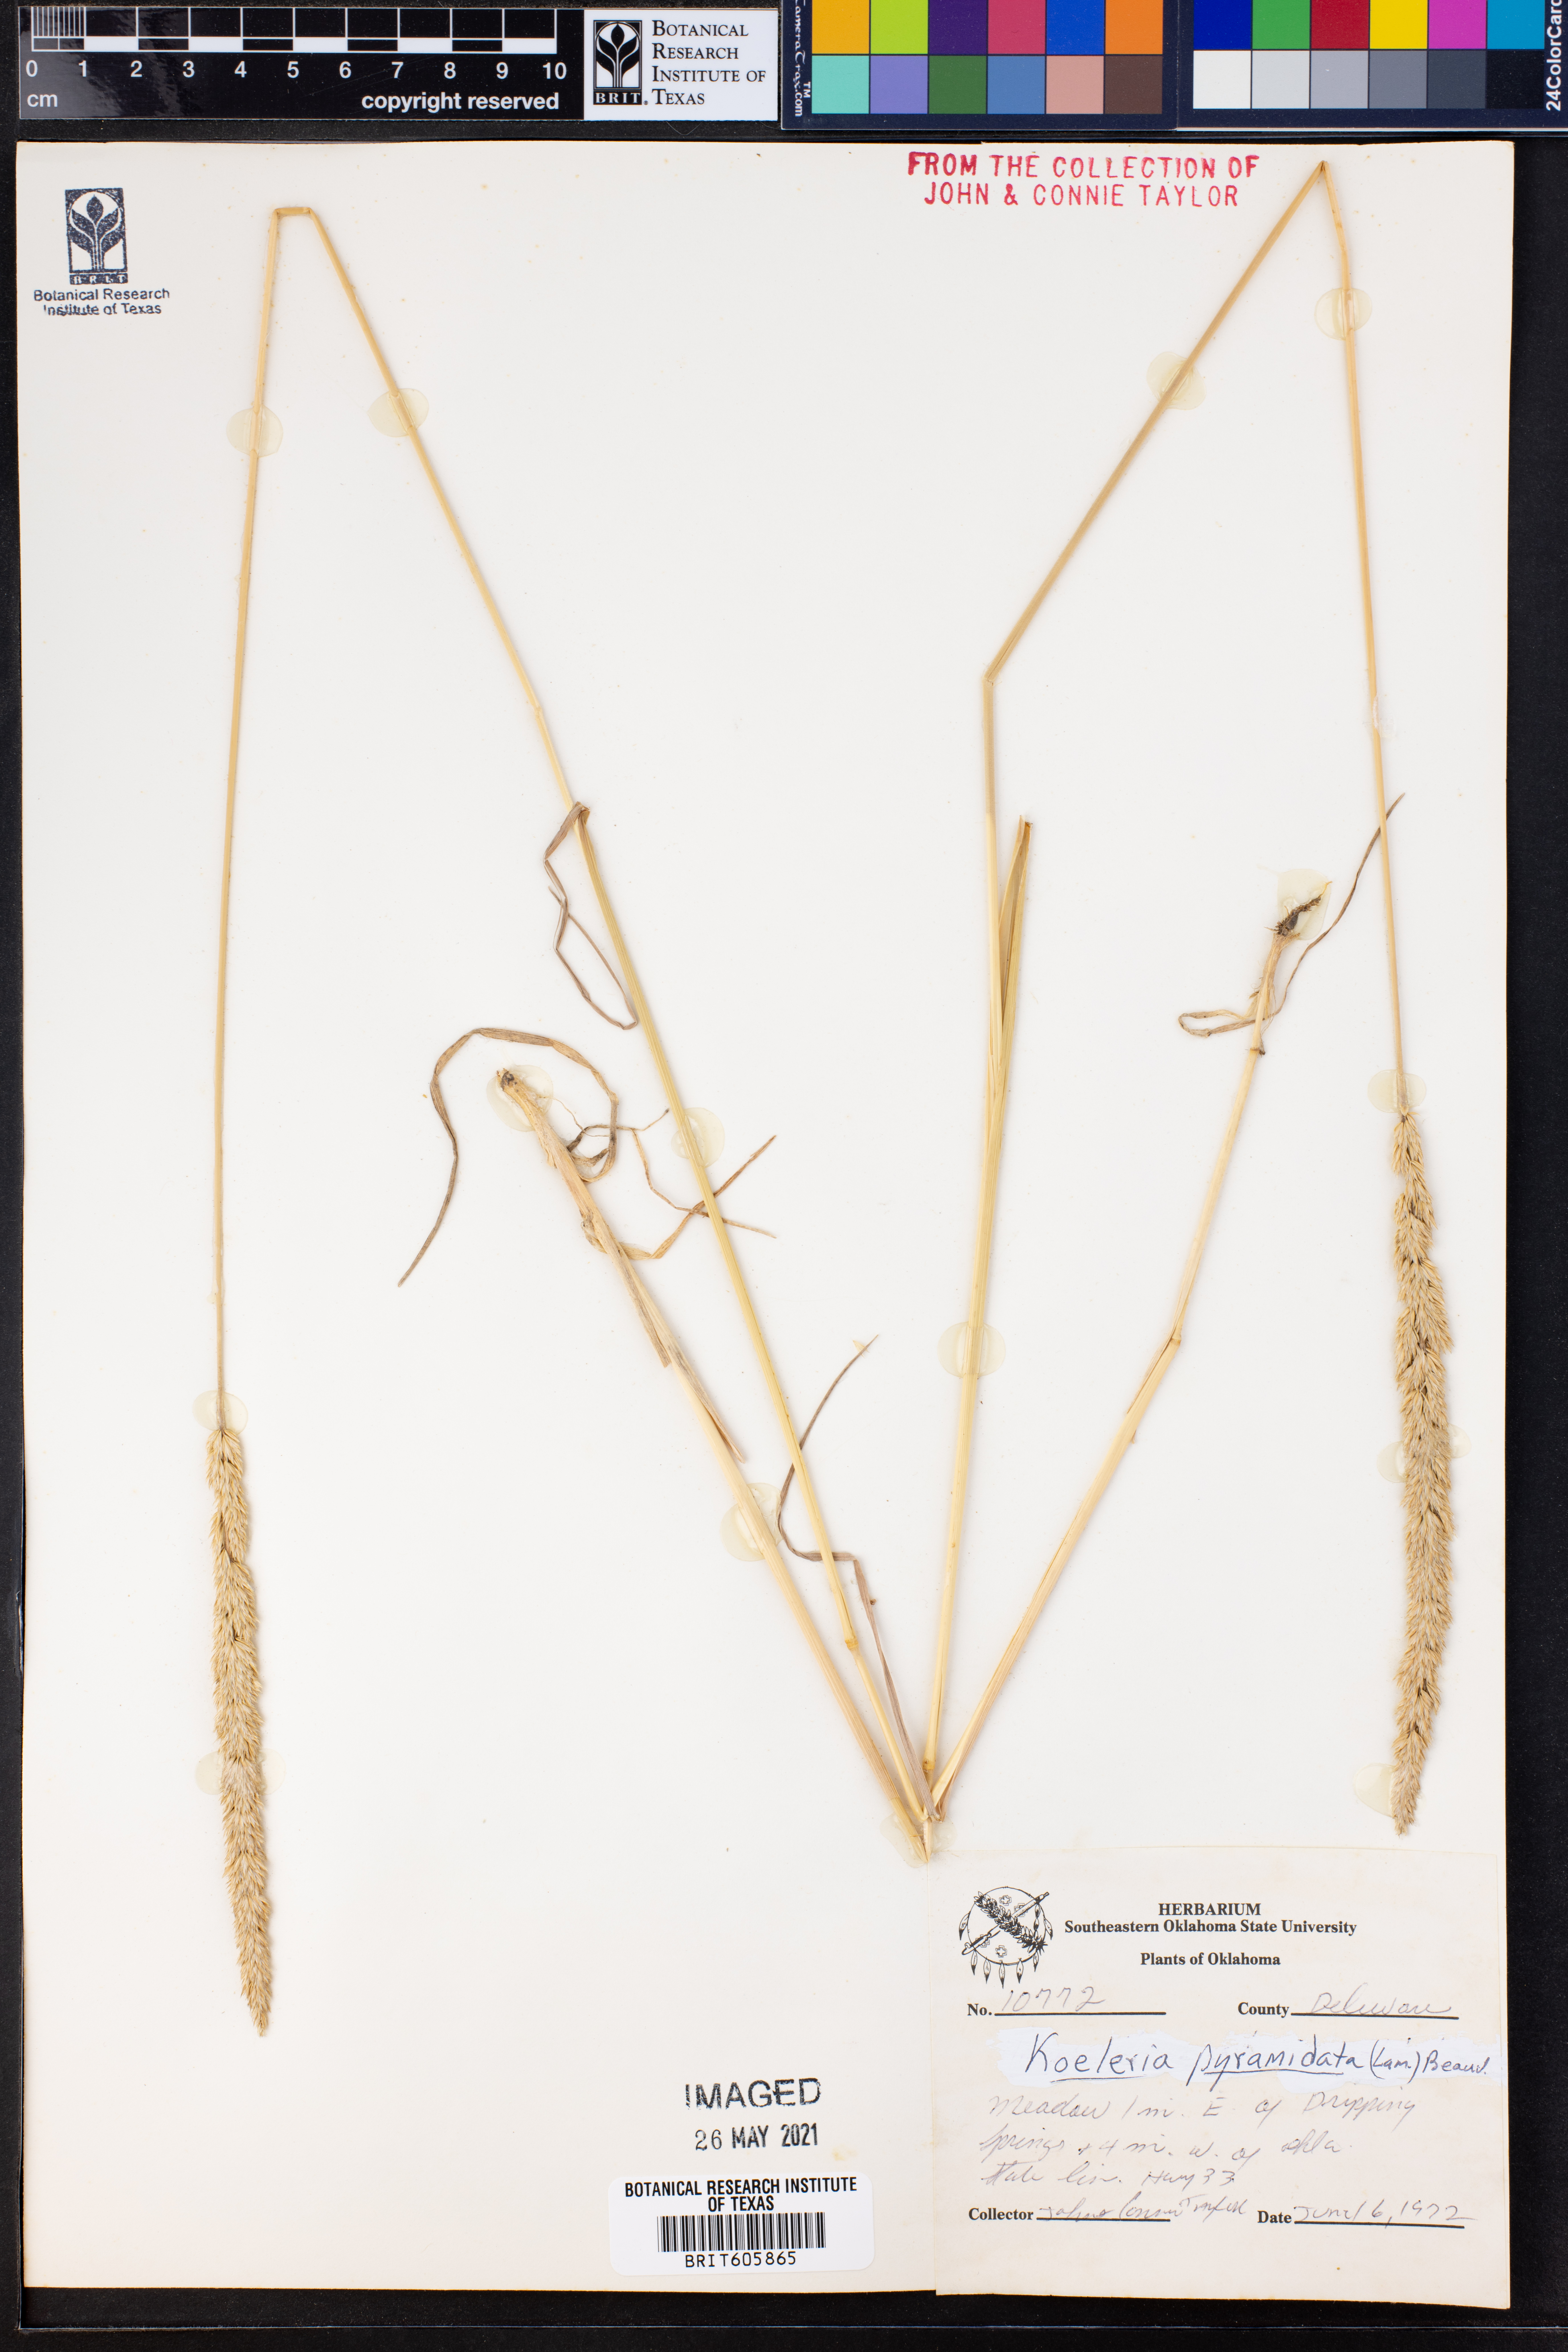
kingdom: Plantae
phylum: Tracheophyta
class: Liliopsida
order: Poales
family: Poaceae
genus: Koeleria
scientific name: Koeleria pyramidata
